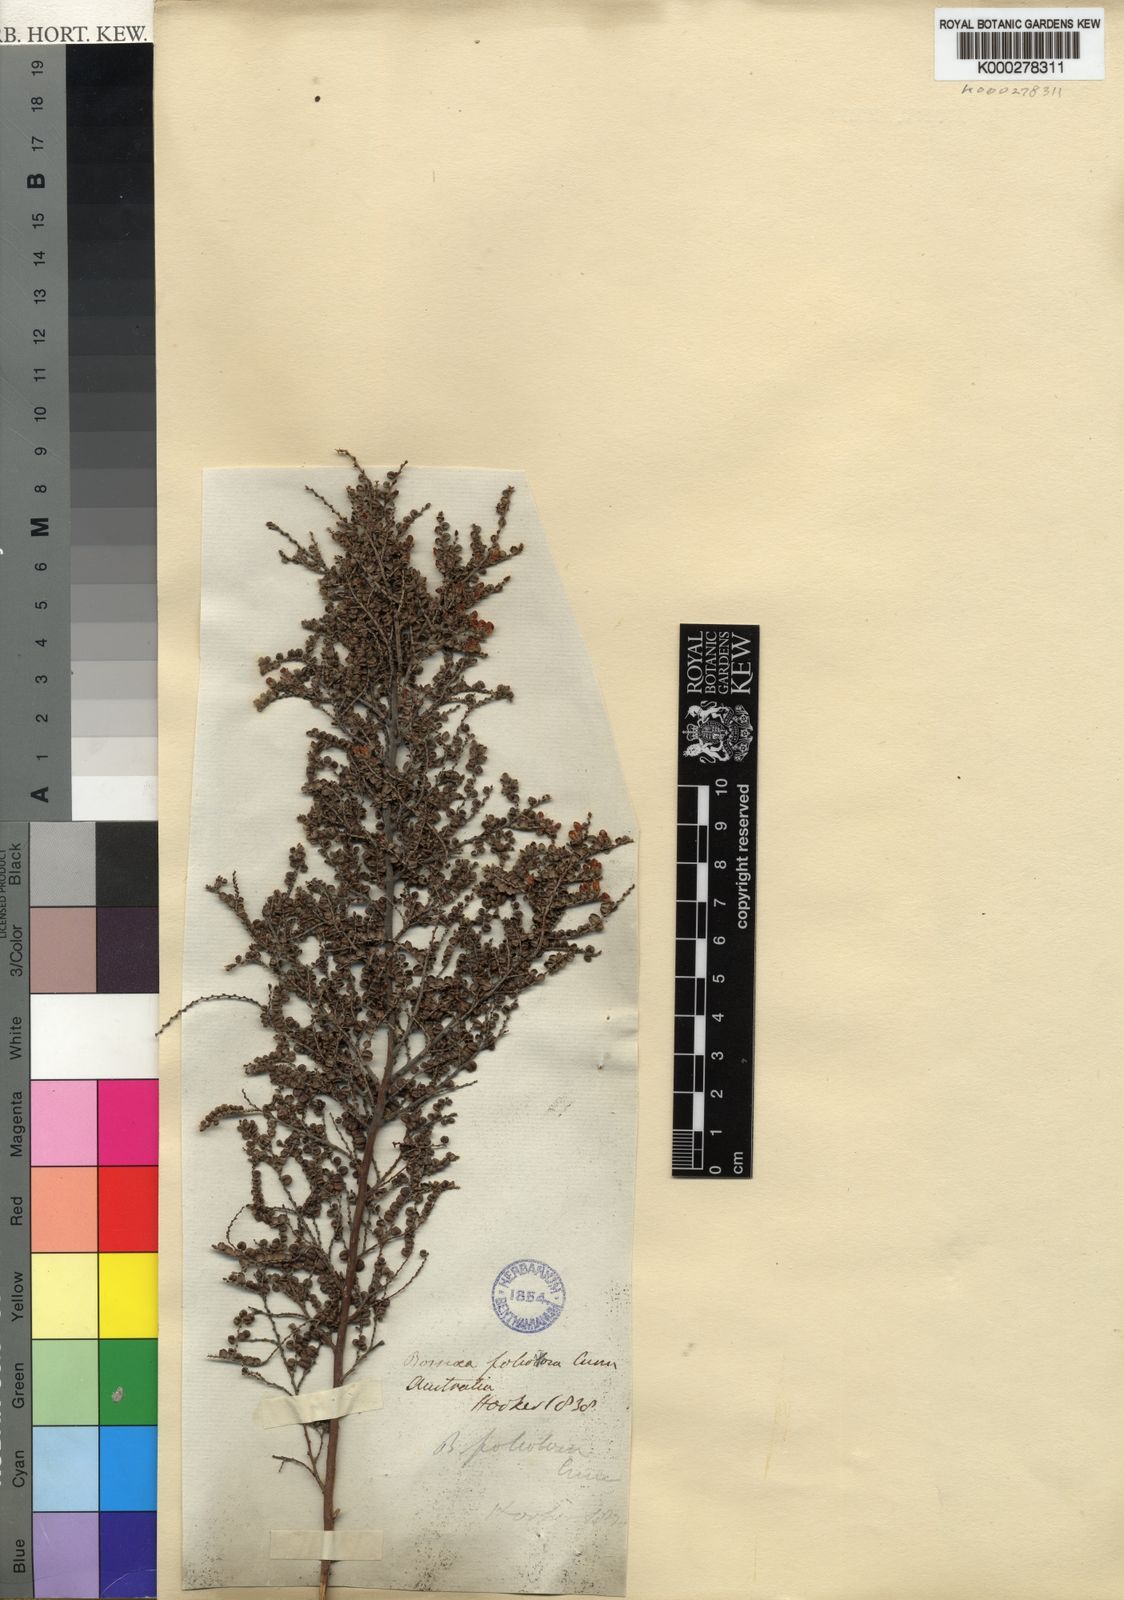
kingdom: Plantae
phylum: Tracheophyta
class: Magnoliopsida
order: Fabales
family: Fabaceae
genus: Bossiaea
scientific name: Bossiaea foliosa
